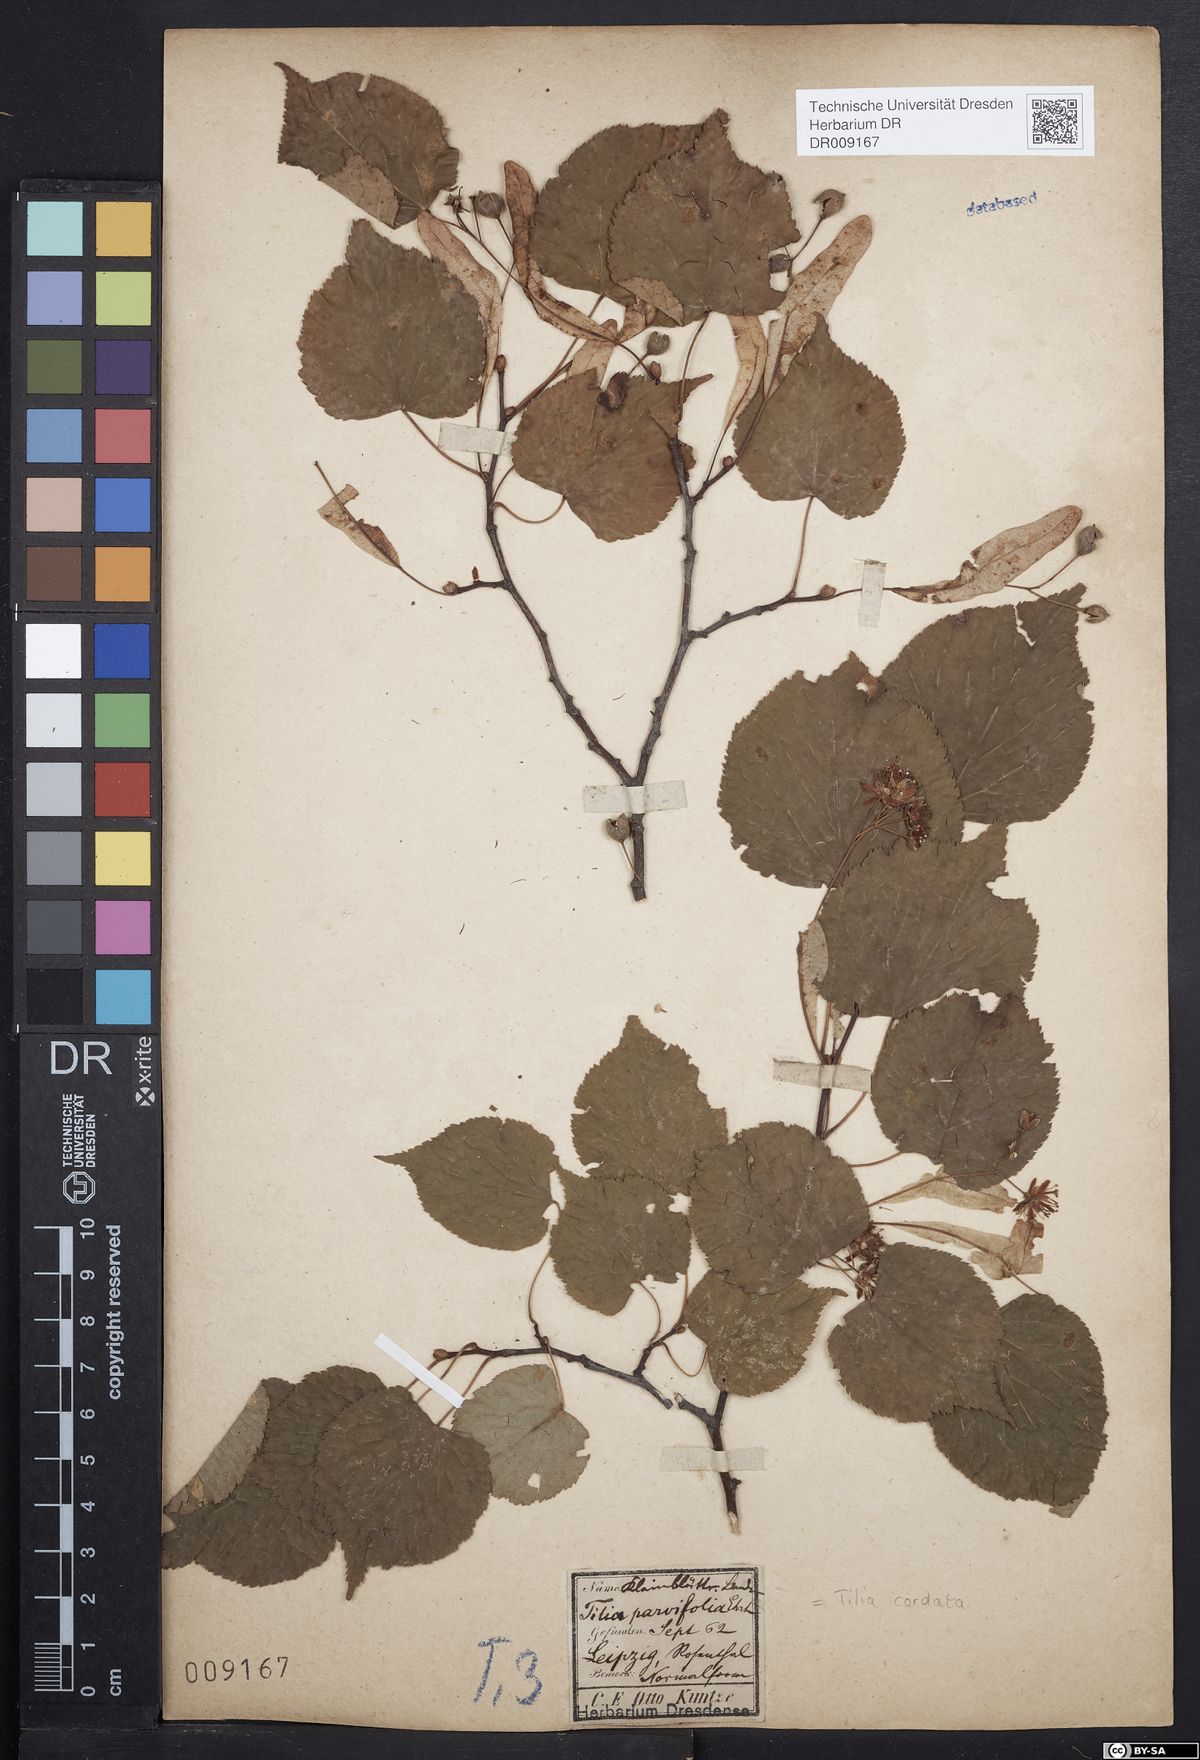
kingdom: Plantae
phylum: Tracheophyta
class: Magnoliopsida
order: Malvales
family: Malvaceae
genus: Tilia
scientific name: Tilia cordata
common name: Small-leaved lime
